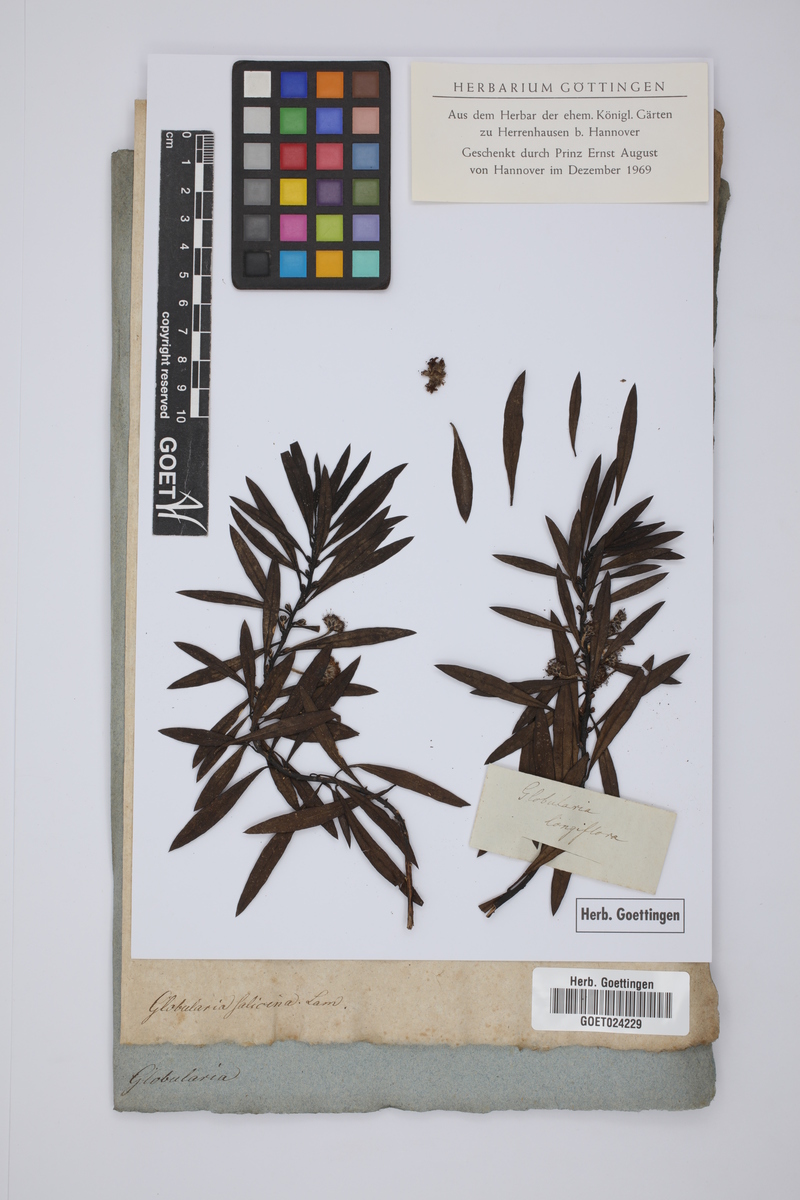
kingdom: Plantae
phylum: Tracheophyta
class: Magnoliopsida
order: Lamiales
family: Plantaginaceae
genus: Globularia
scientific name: Globularia salicina
